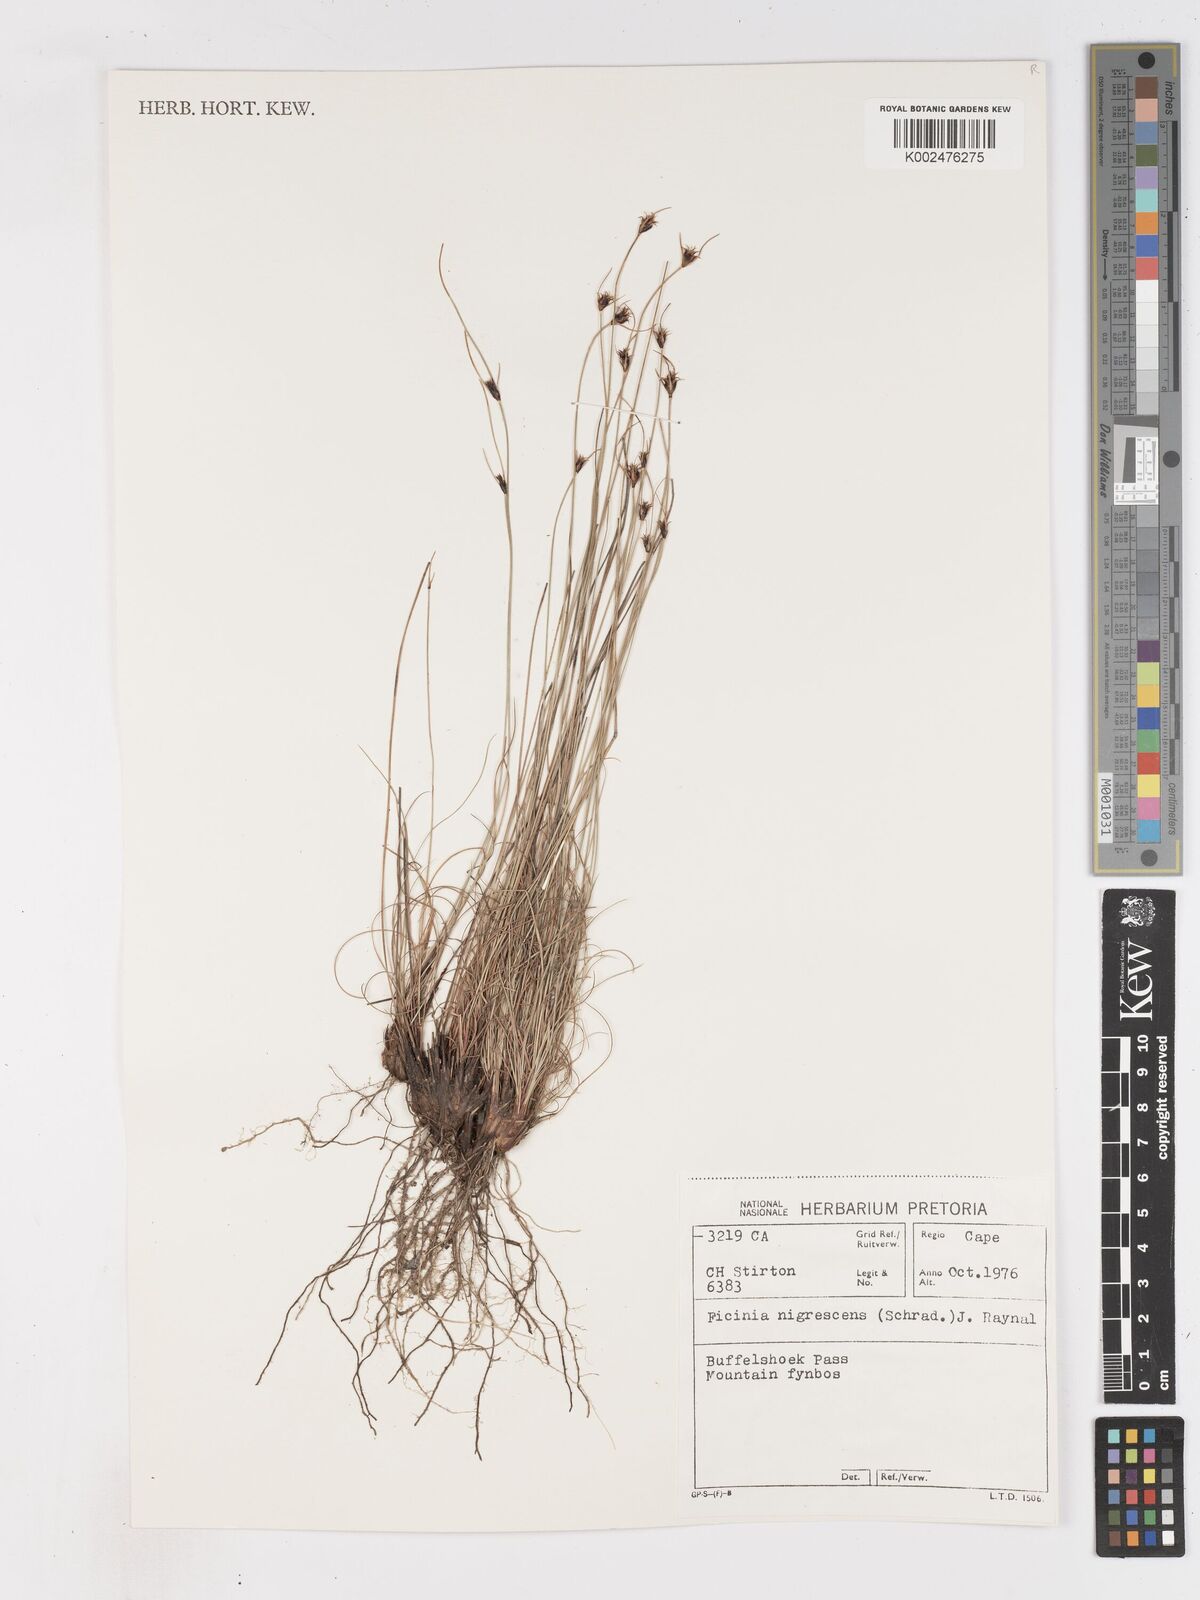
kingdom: Plantae
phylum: Tracheophyta
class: Liliopsida
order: Poales
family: Cyperaceae
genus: Ficinia
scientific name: Ficinia nigrescens
